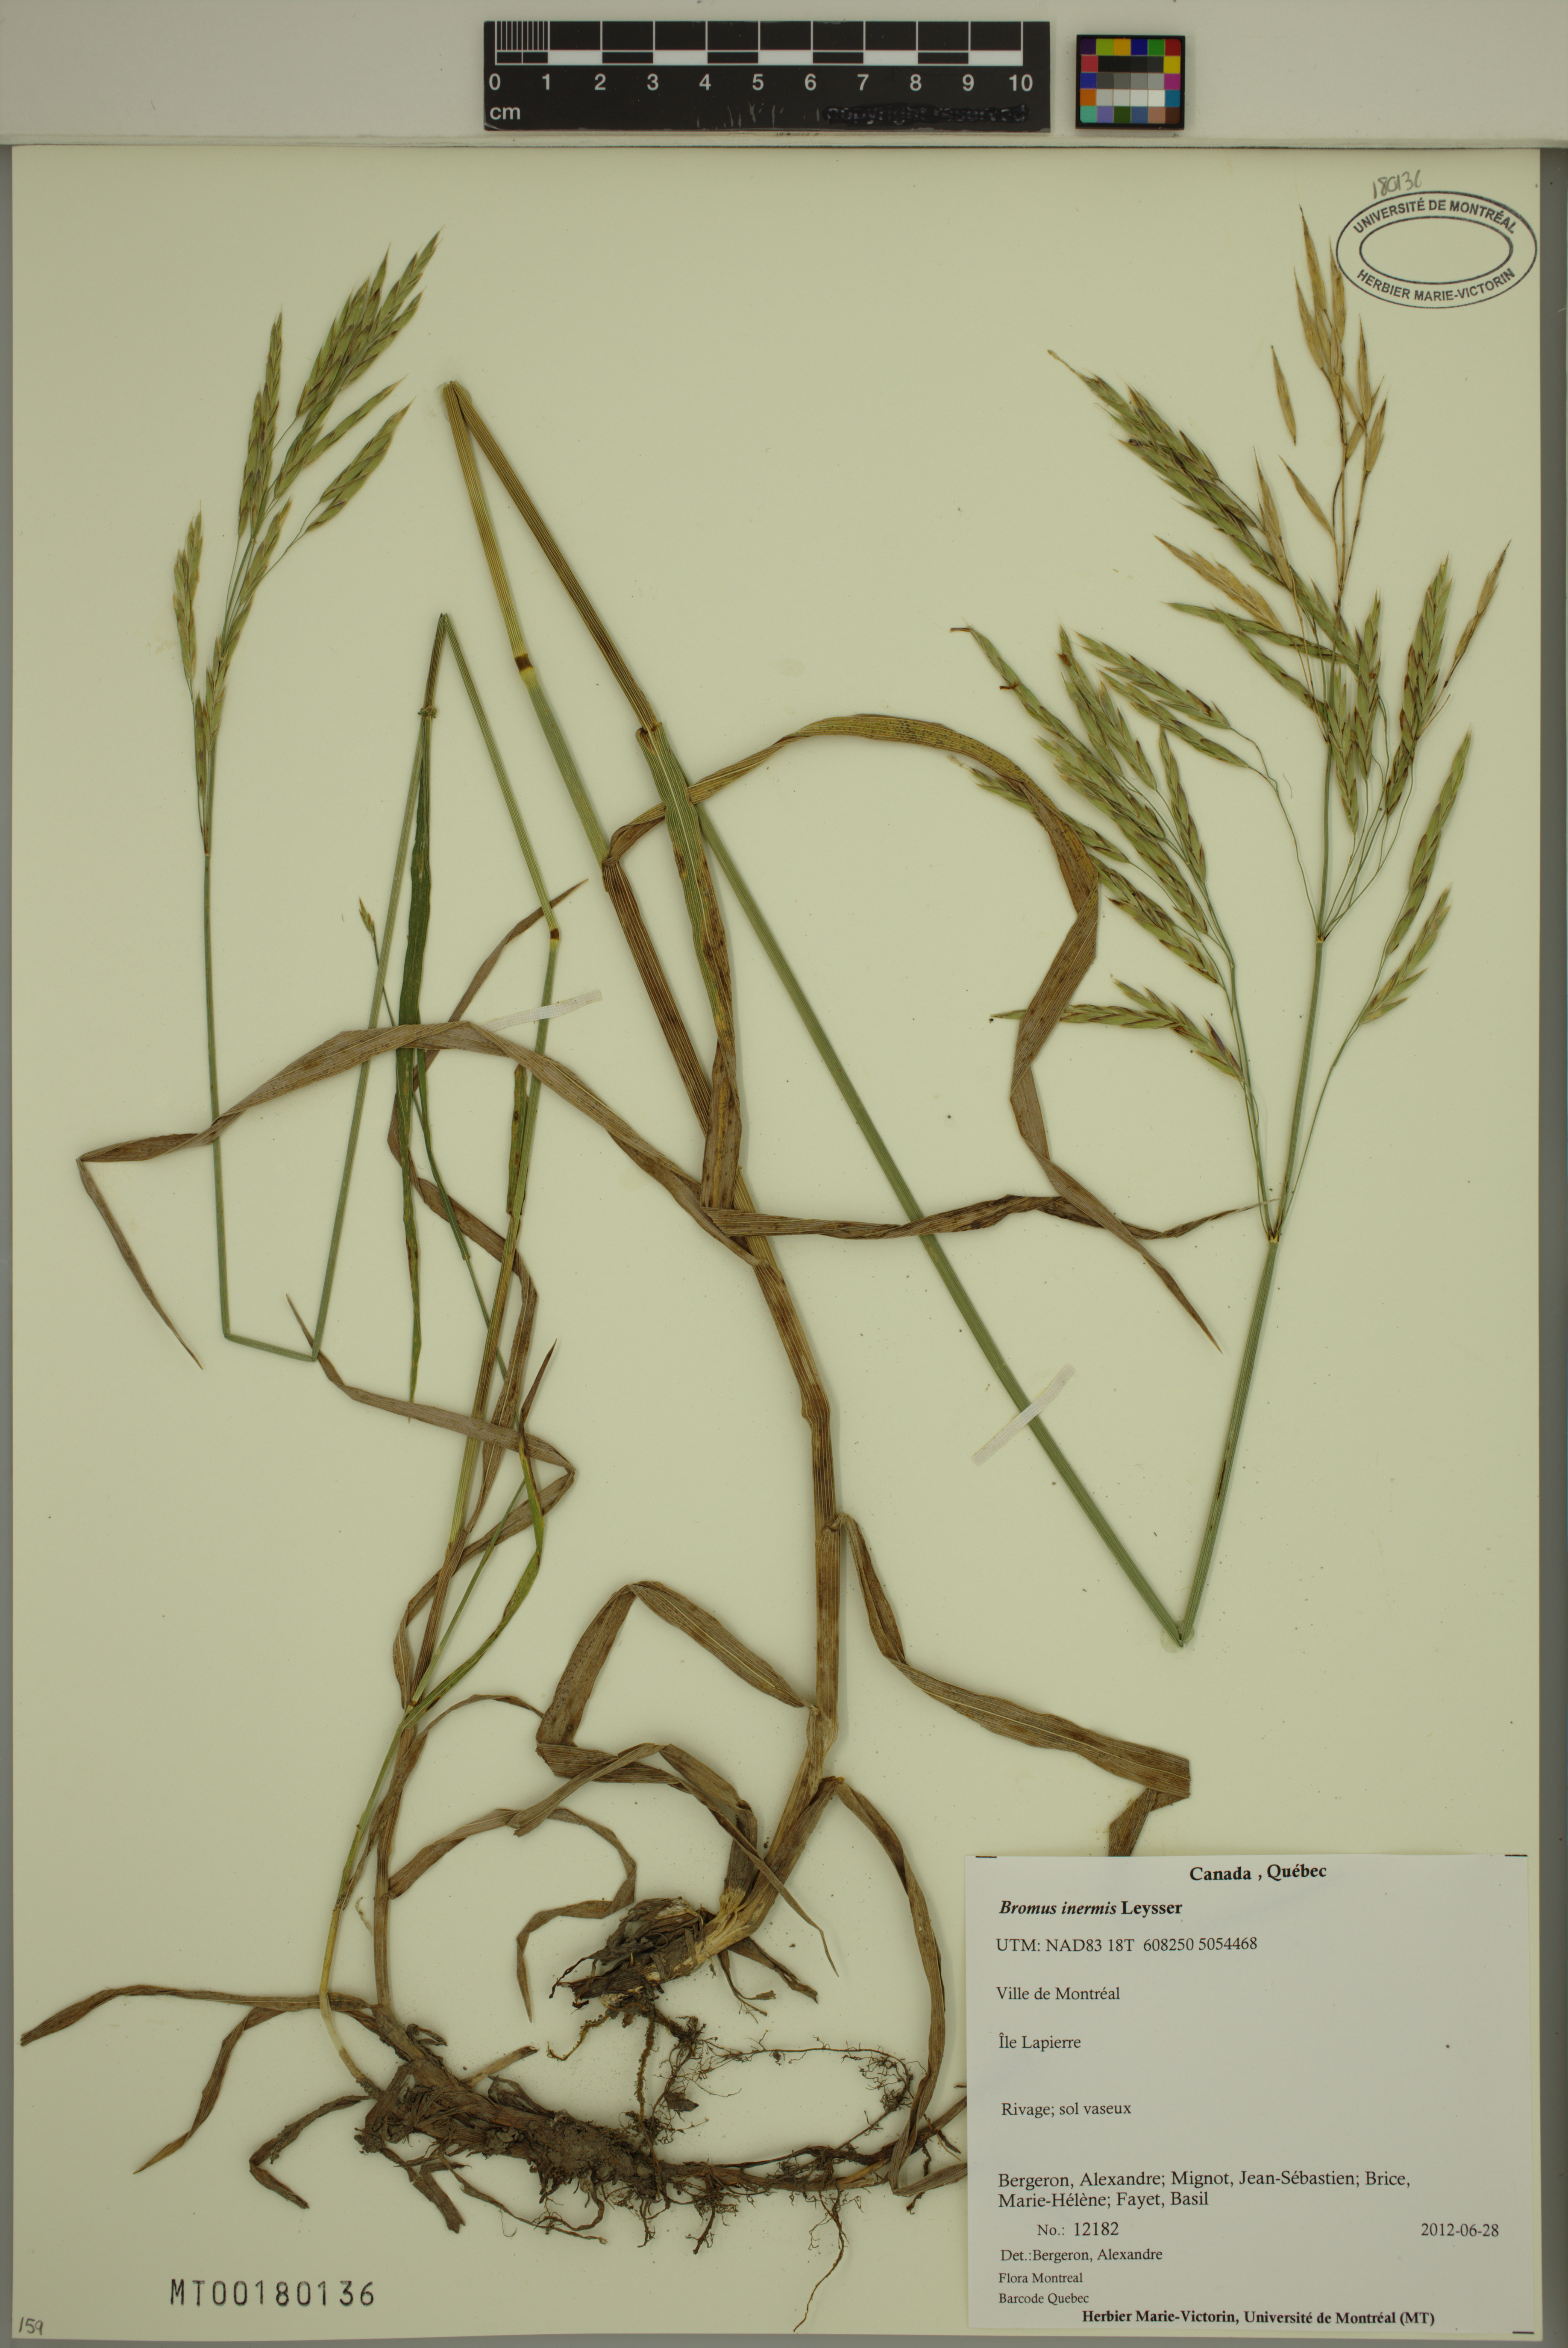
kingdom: Plantae
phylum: Tracheophyta
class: Liliopsida
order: Poales
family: Poaceae
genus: Bromus
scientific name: Bromus inermis
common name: Smooth brome
